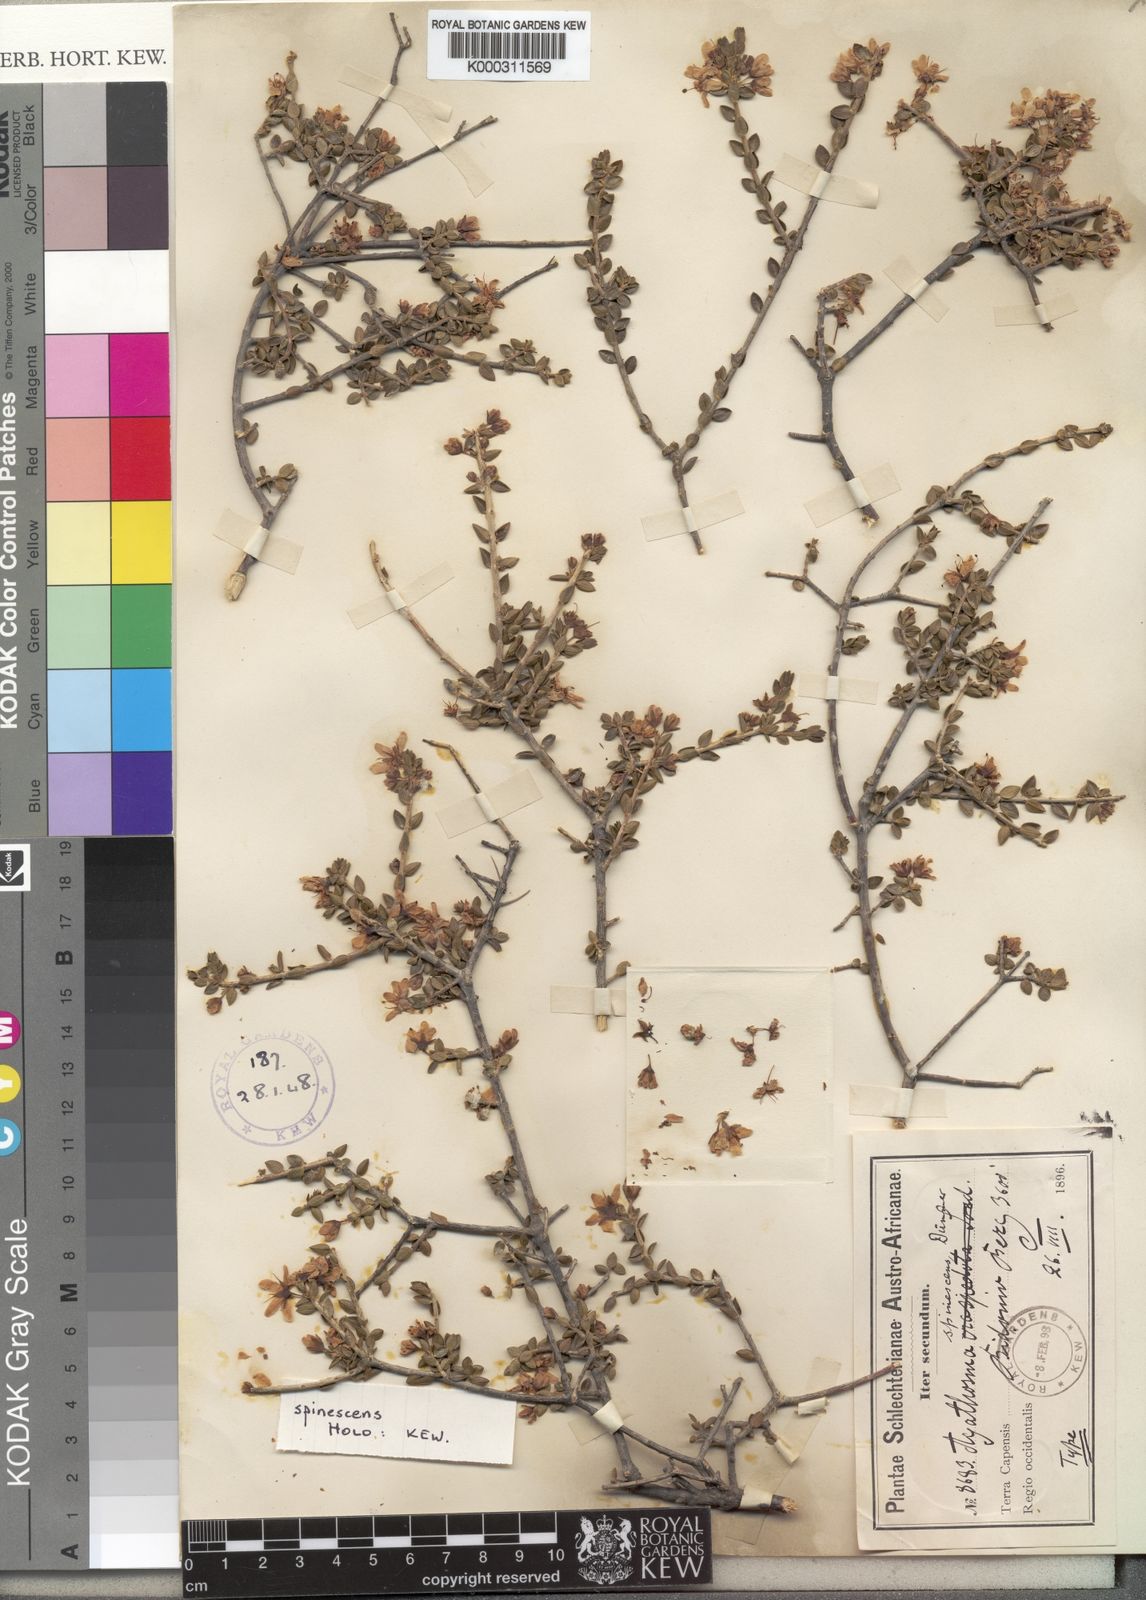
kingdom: Plantae
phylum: Tracheophyta
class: Magnoliopsida
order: Sapindales
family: Rutaceae
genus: Agathosma
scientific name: Agathosma spinescens
